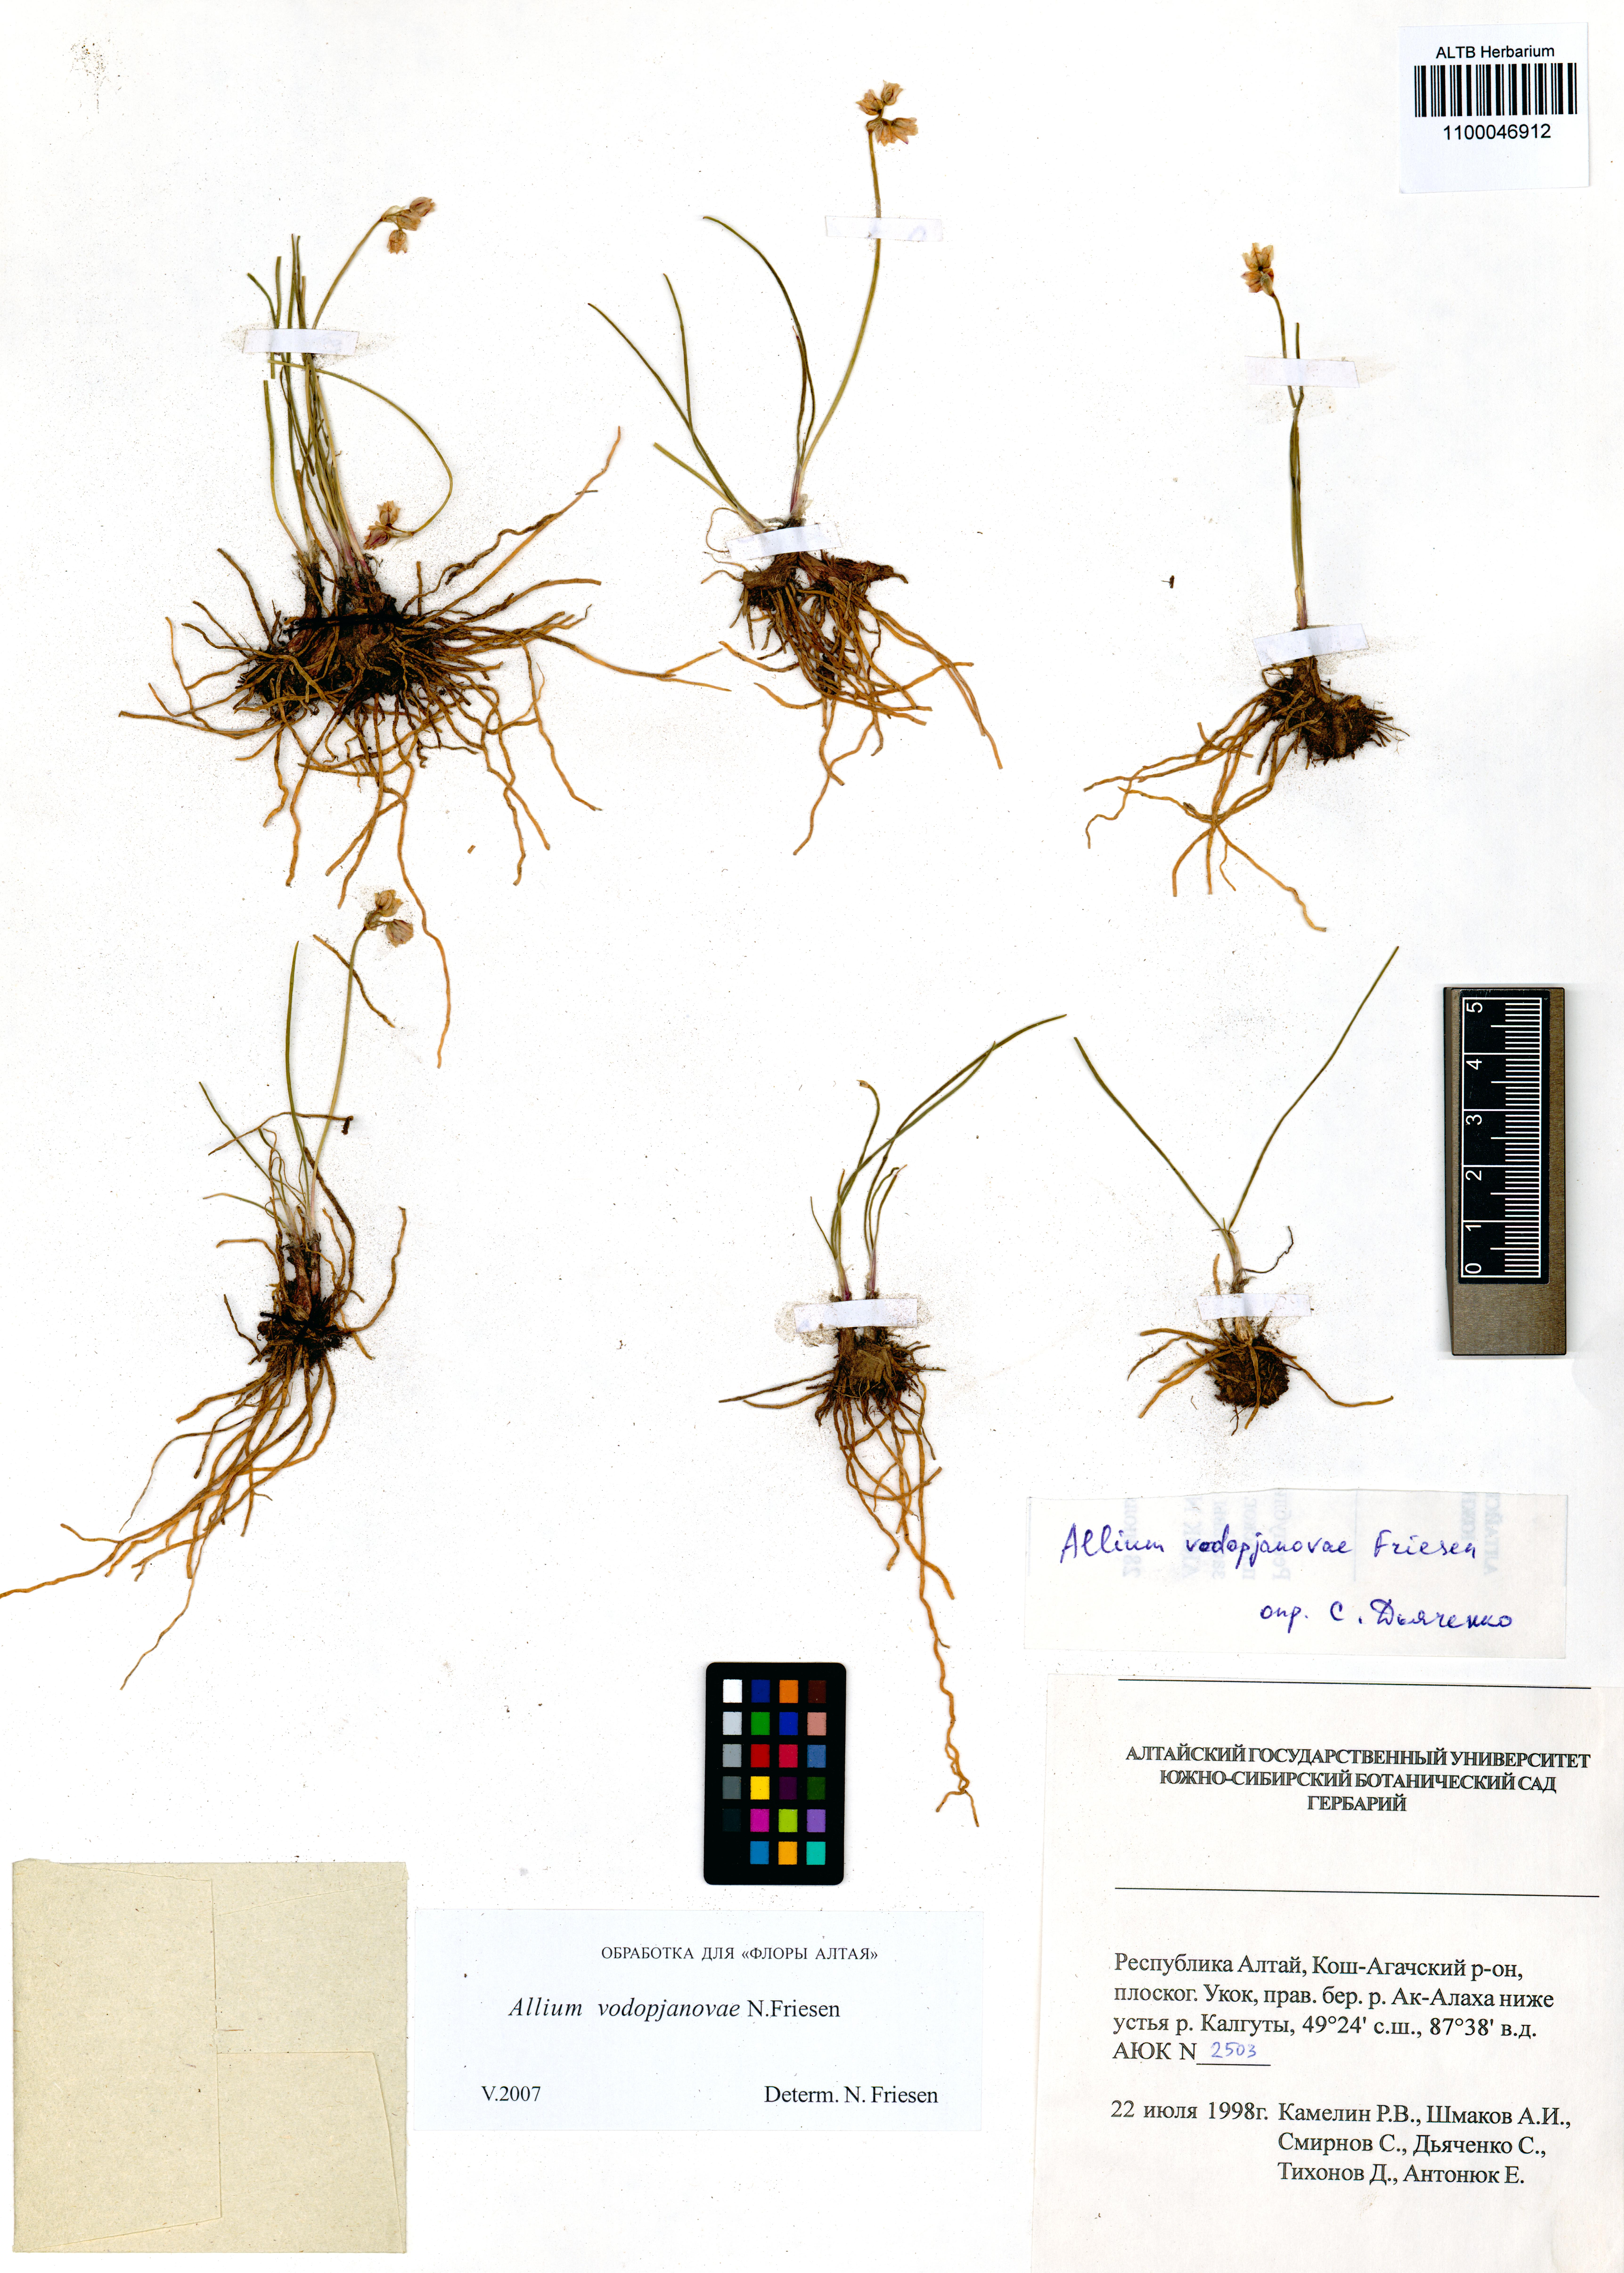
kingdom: Plantae
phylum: Tracheophyta
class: Liliopsida
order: Asparagales
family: Amaryllidaceae
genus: Allium
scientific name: Allium vodopjanovae
